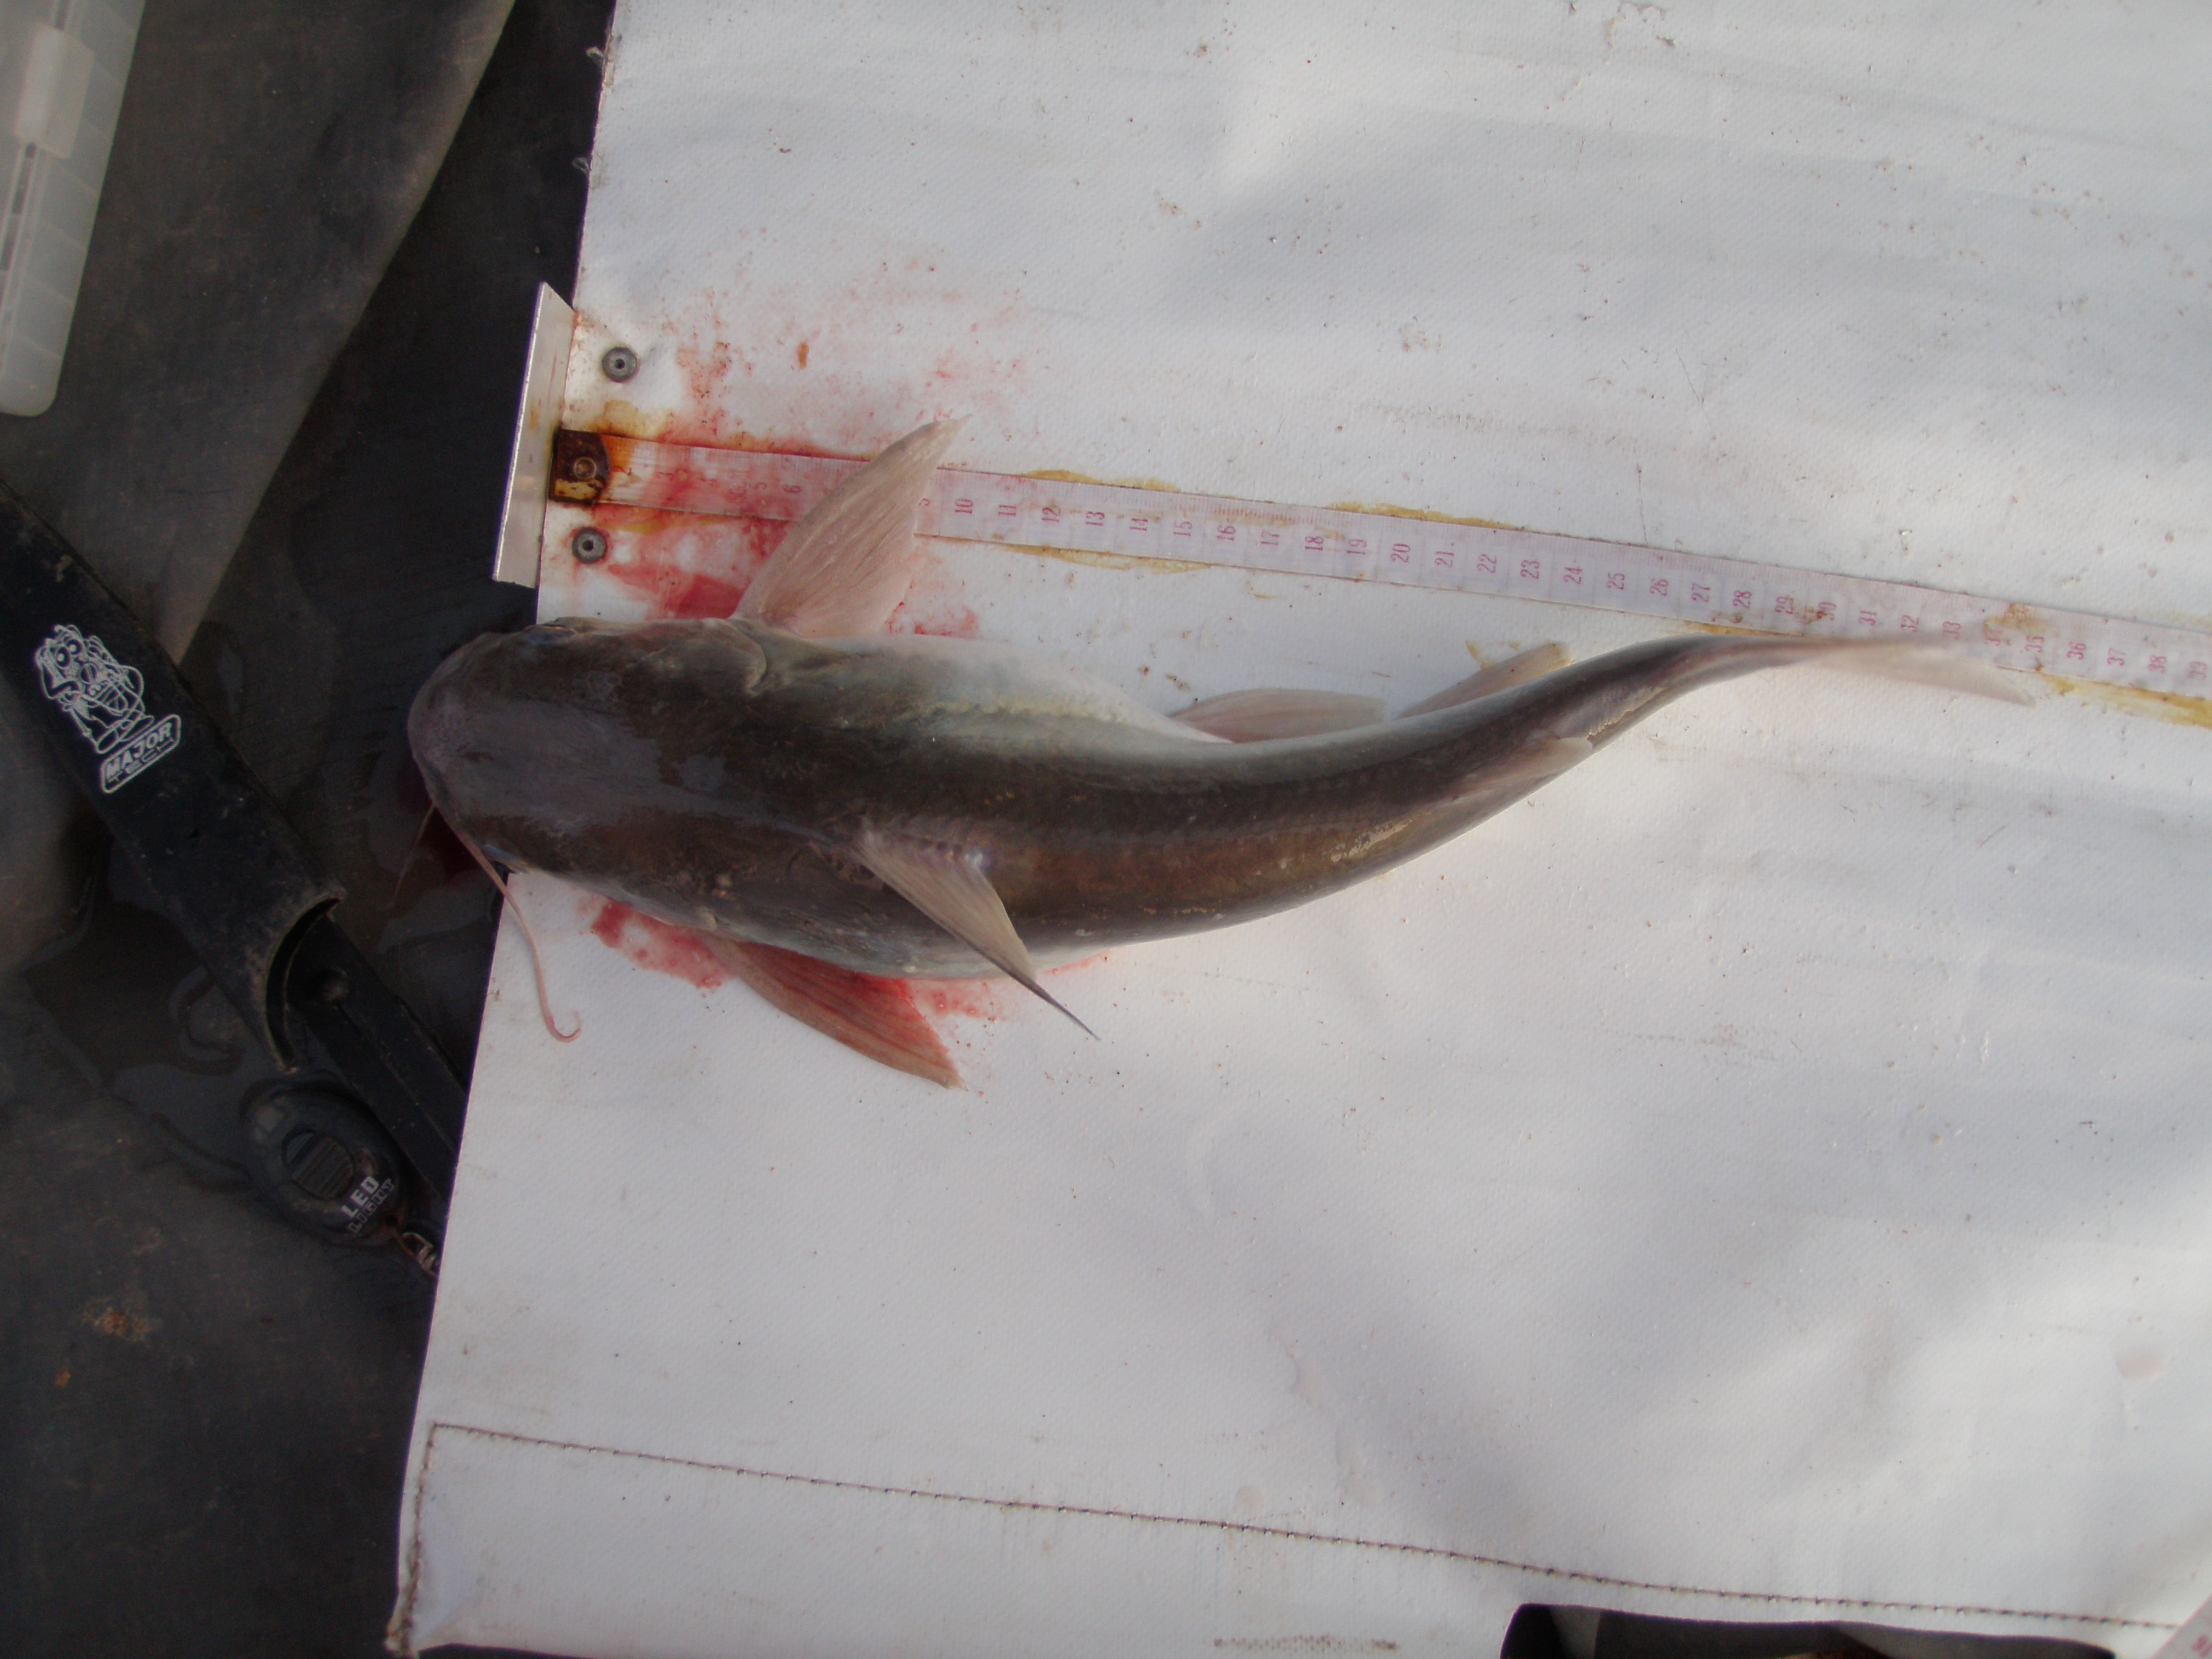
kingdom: Animalia
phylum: Chordata
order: Siluriformes
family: Ariidae
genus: Galeichthys
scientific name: Galeichthys feliceps
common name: White seacatfish
